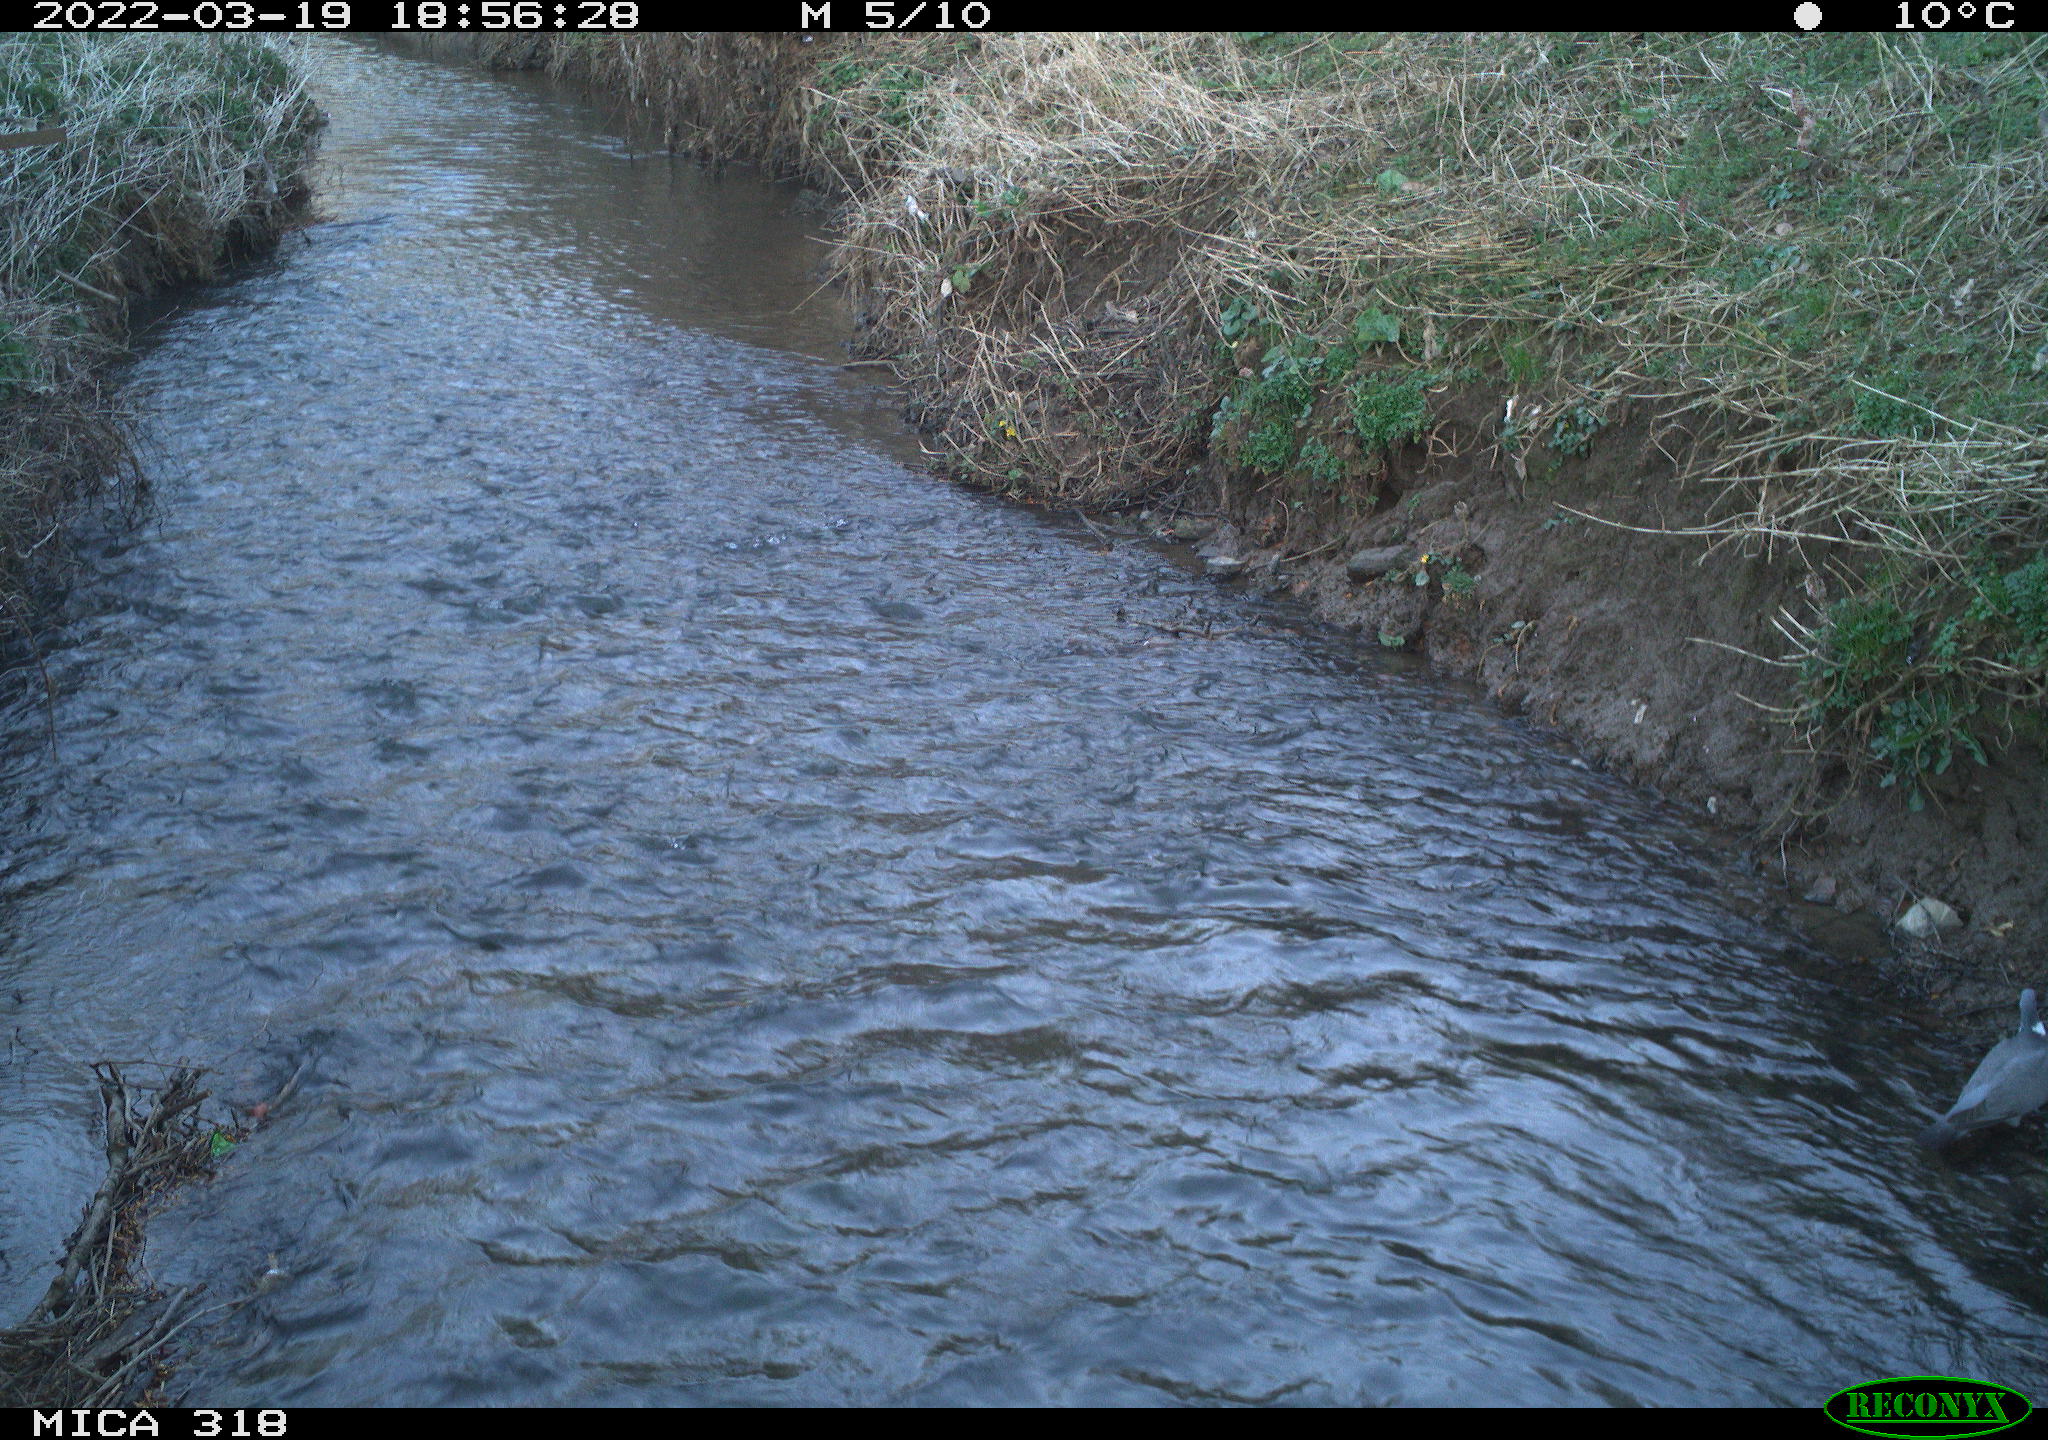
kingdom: Animalia
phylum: Chordata
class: Aves
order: Columbiformes
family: Columbidae
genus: Columba
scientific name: Columba palumbus
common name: Common wood pigeon
